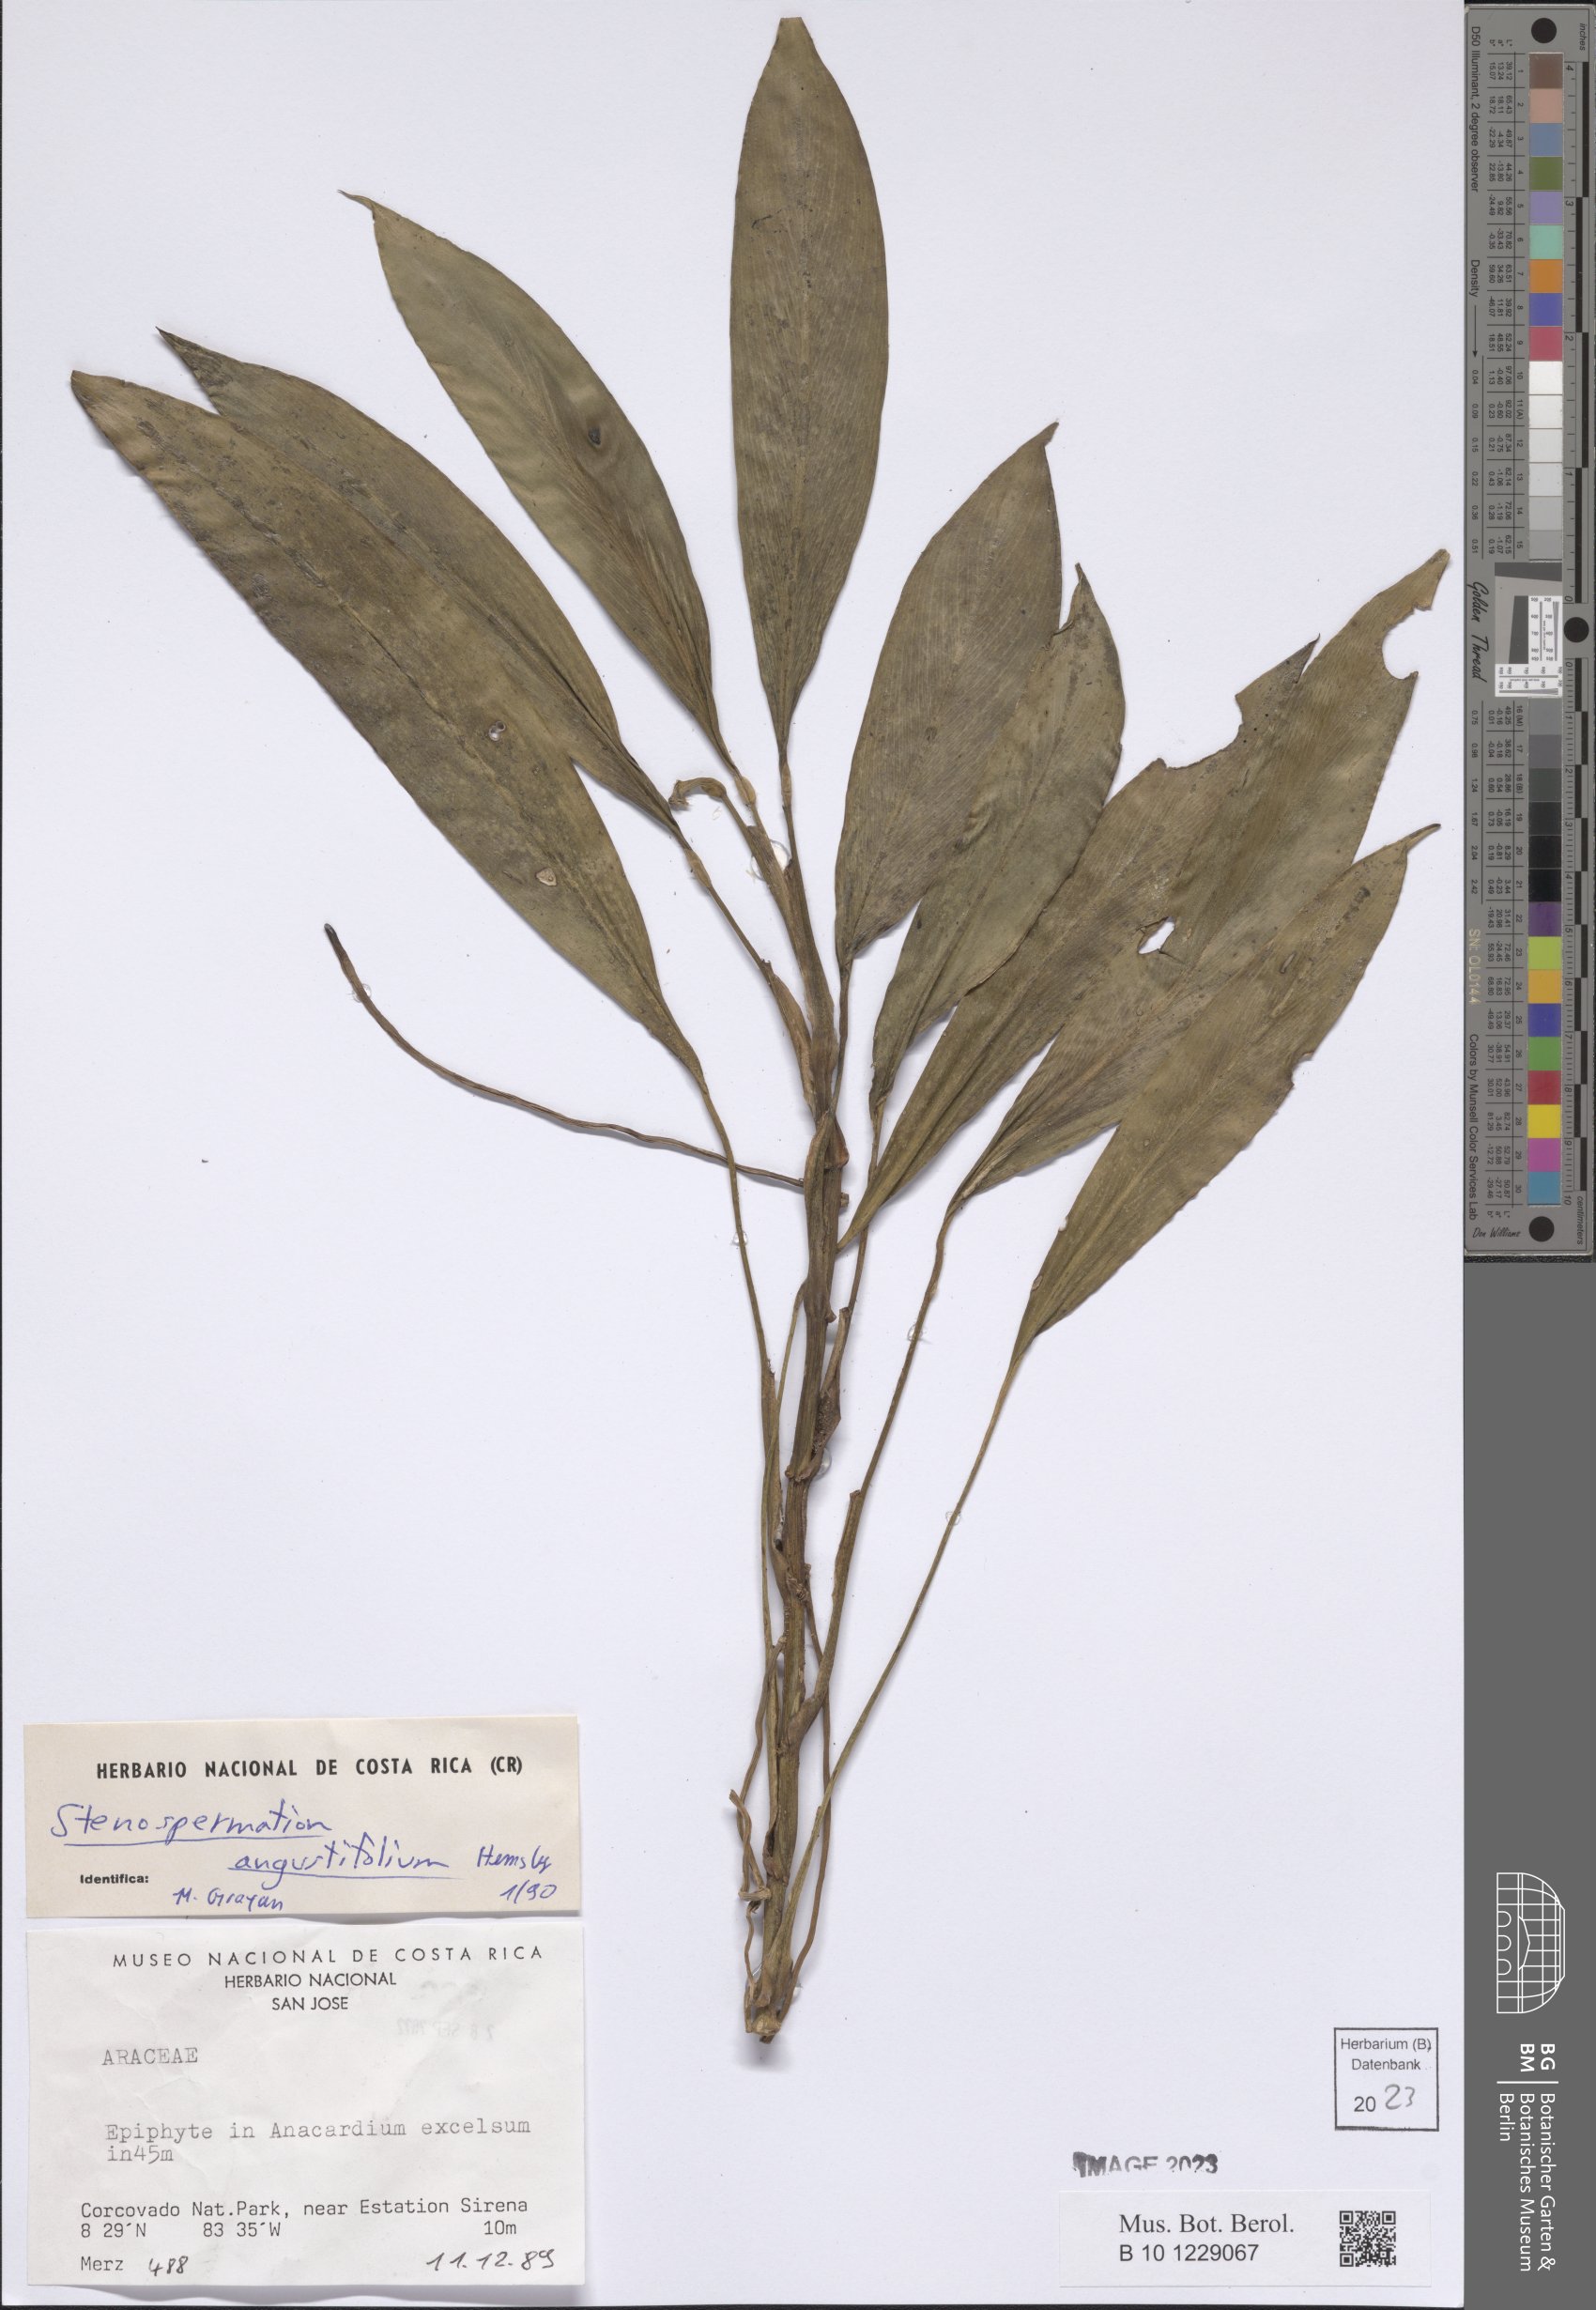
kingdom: Plantae
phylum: Tracheophyta
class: Liliopsida
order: Alismatales
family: Araceae
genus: Stenospermation
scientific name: Stenospermation angustifolium
